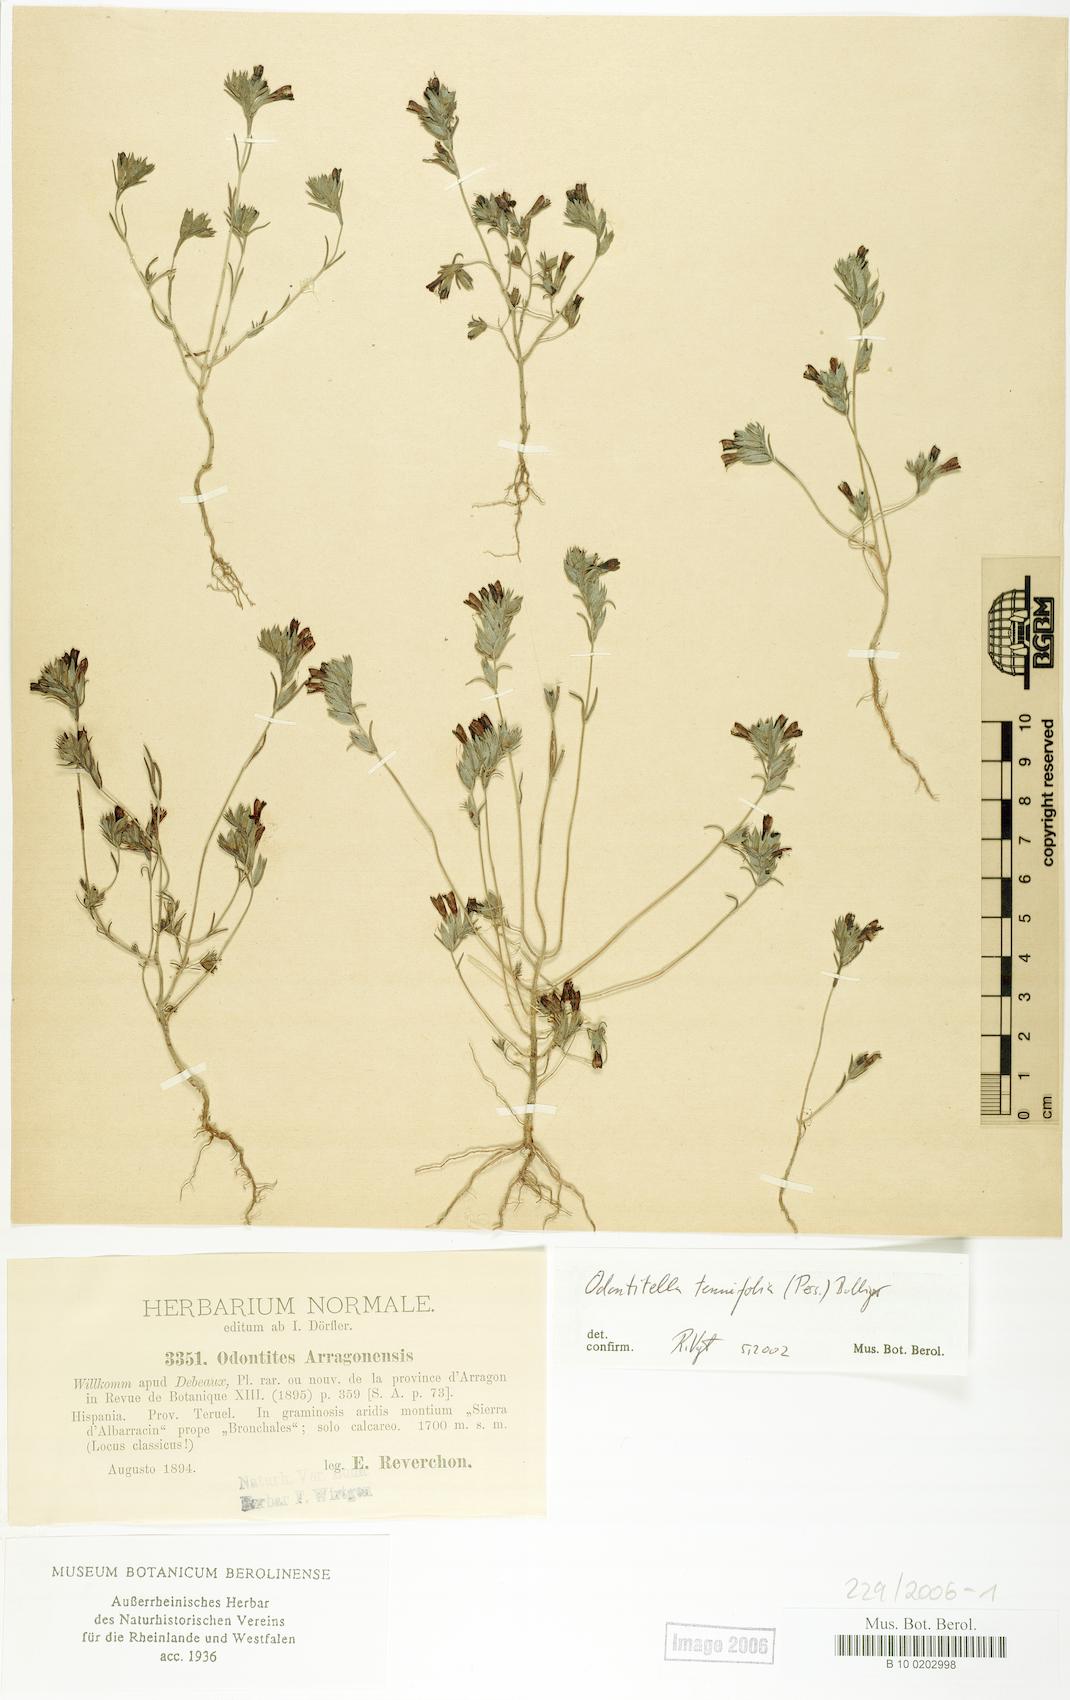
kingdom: Plantae
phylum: Tracheophyta
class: Magnoliopsida
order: Lamiales
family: Orobanchaceae
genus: Odontitella
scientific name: Odontitella virgata
